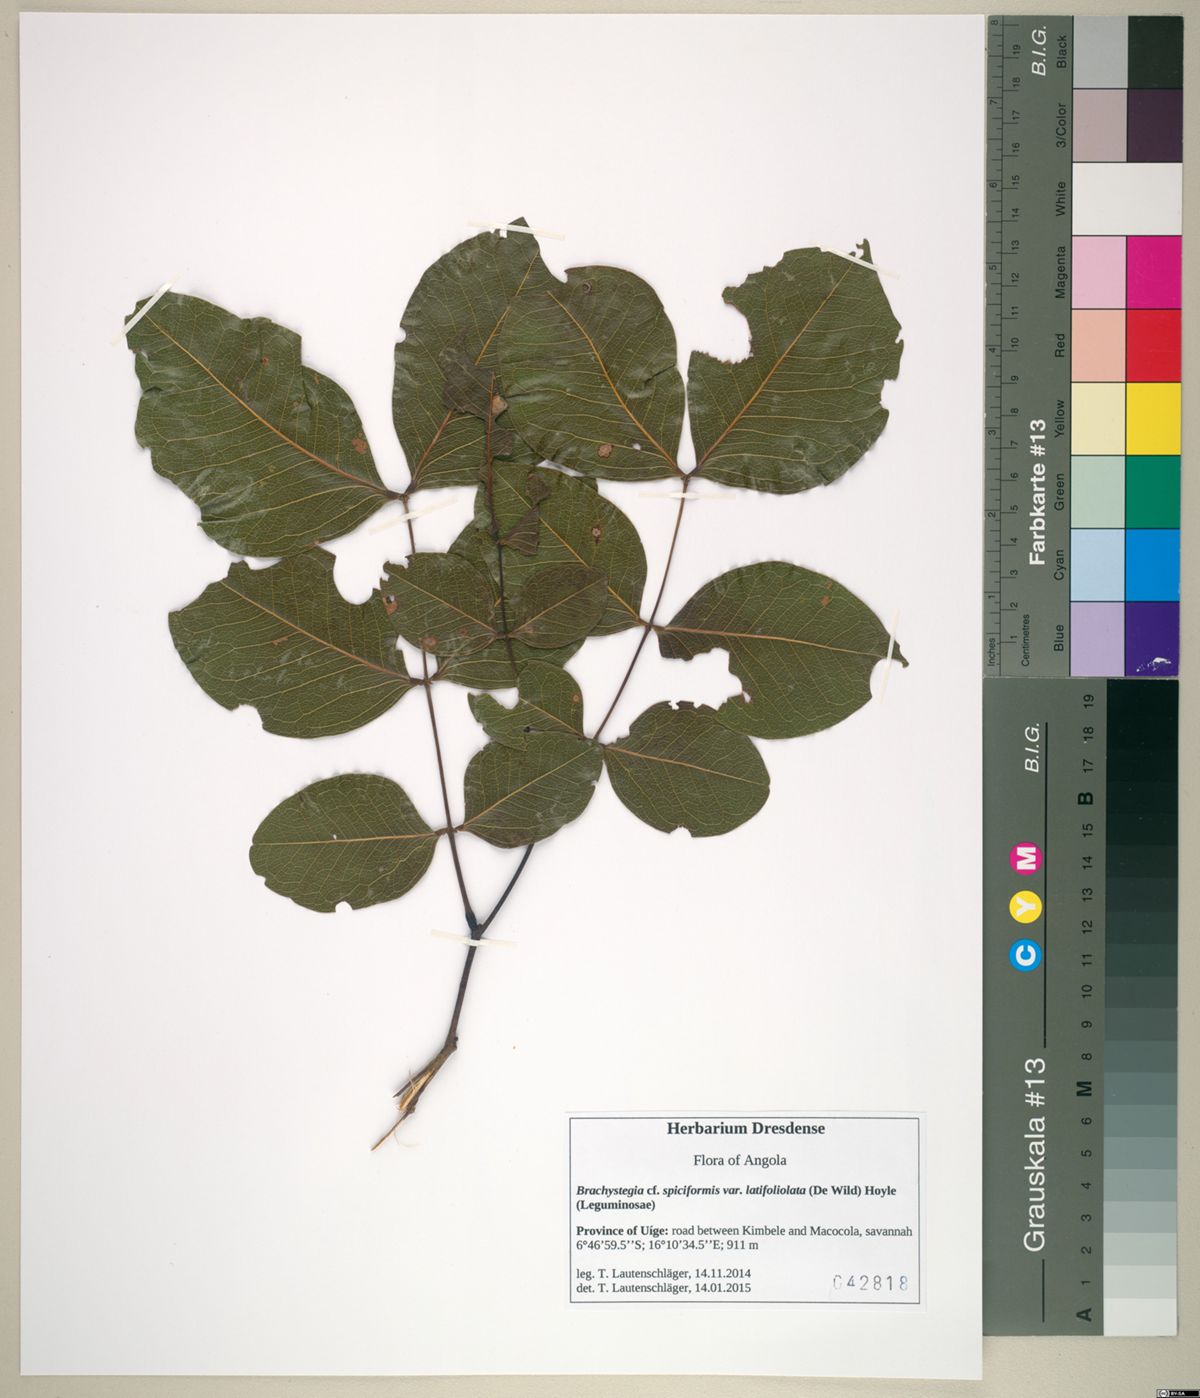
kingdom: Plantae
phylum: Tracheophyta
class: Magnoliopsida
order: Fabales
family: Fabaceae
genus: Brachystegia
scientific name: Brachystegia spiciformis
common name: Zebrawood
